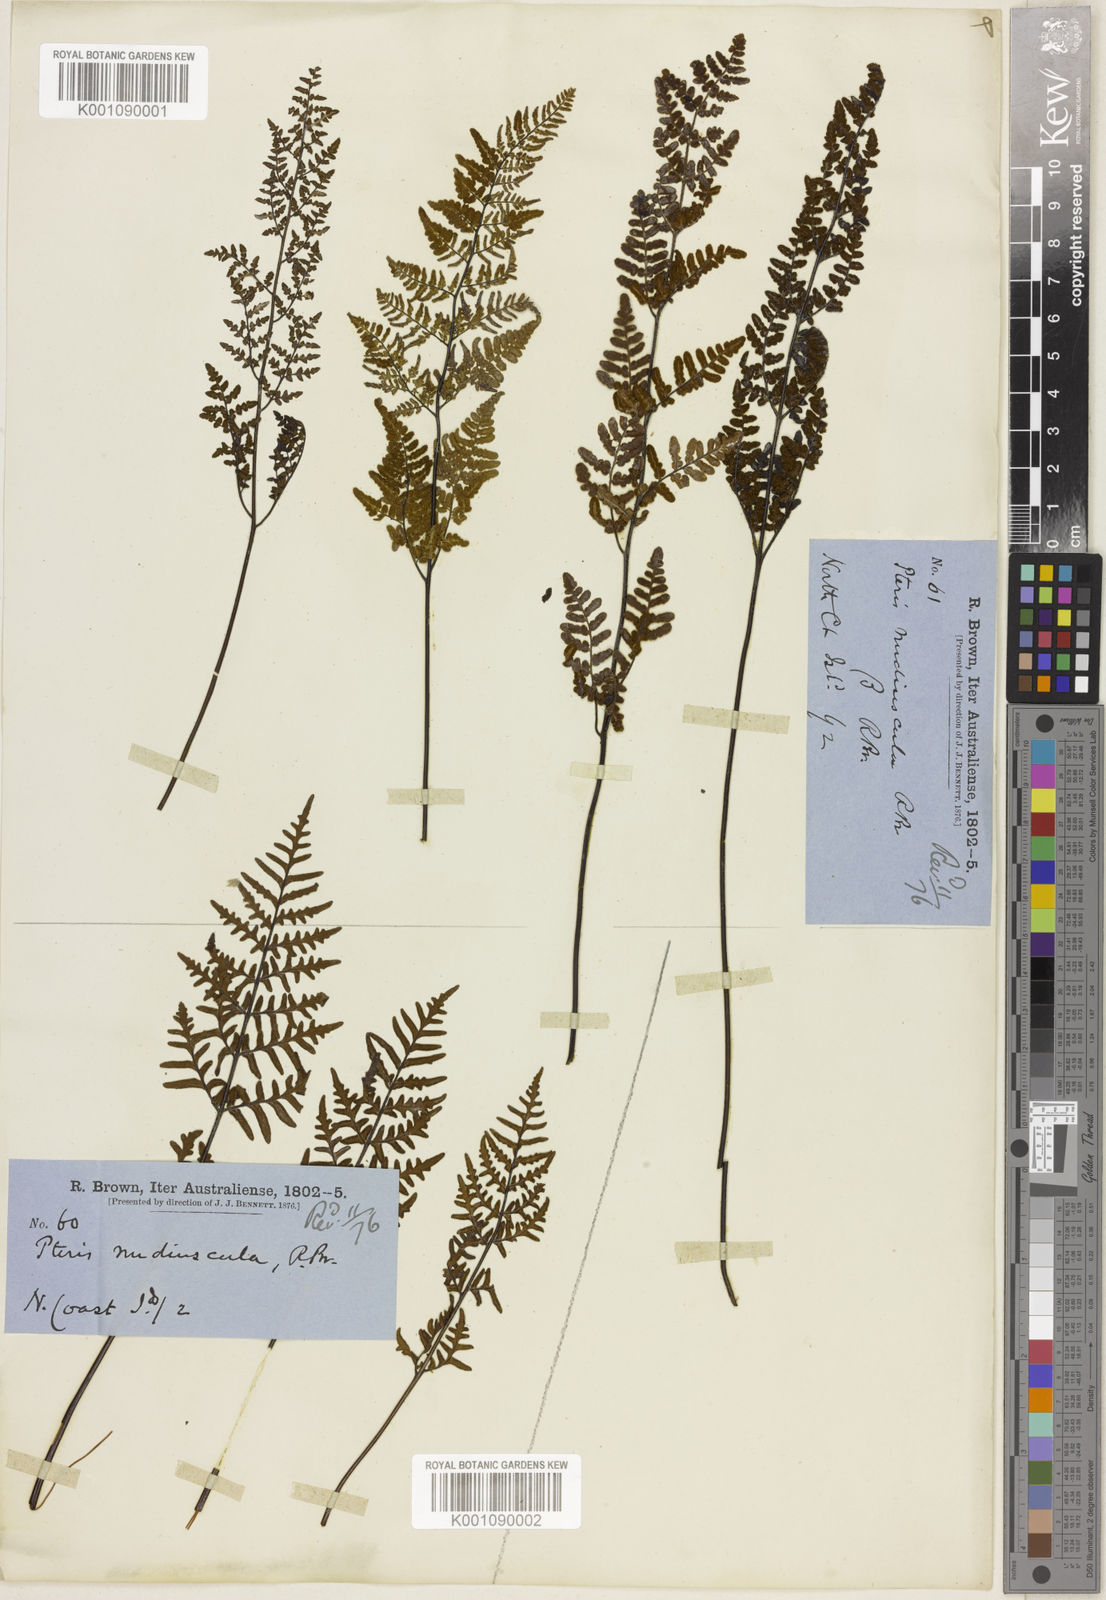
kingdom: Plantae
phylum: Tracheophyta
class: Polypodiopsida
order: Polypodiales
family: Pteridaceae
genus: Gaga
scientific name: Gaga hirsuta
